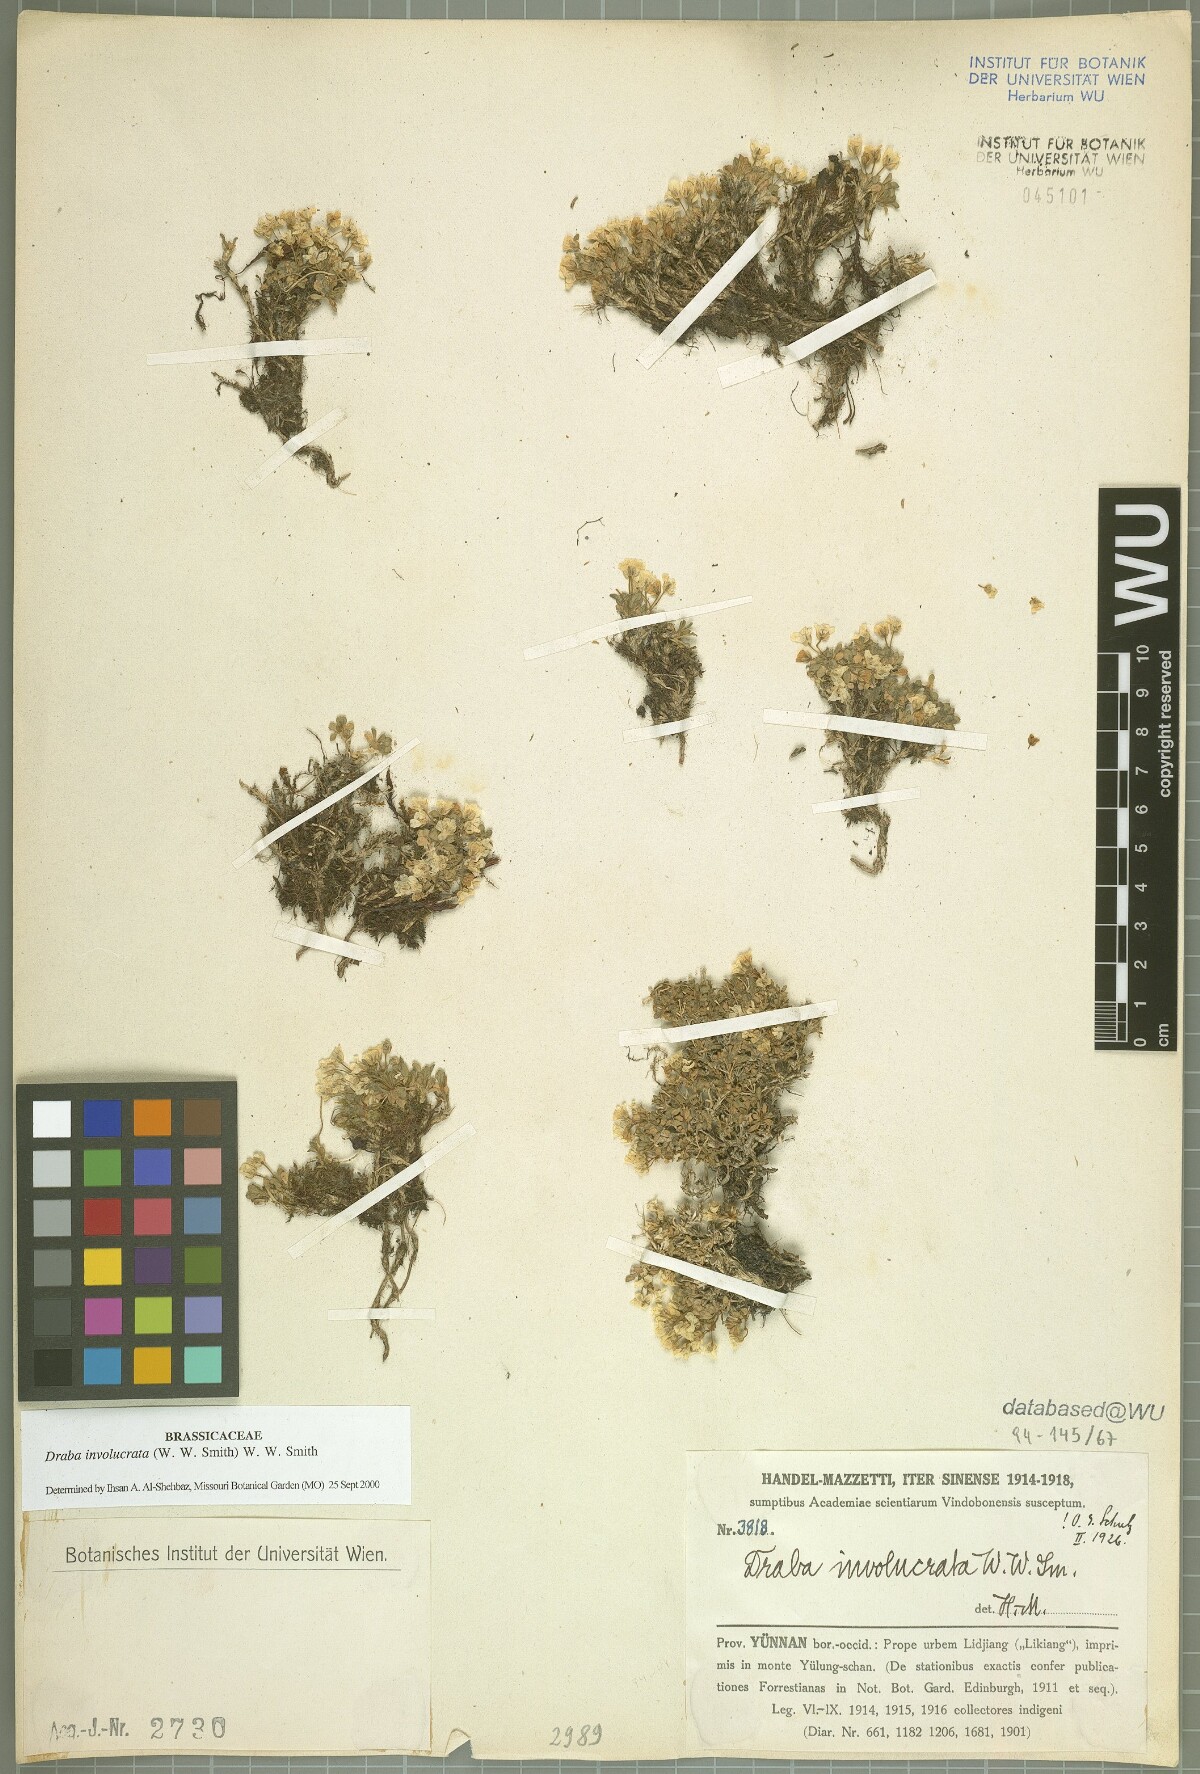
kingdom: Plantae
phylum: Tracheophyta
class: Magnoliopsida
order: Brassicales
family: Brassicaceae
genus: Draba
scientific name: Draba involucrata
